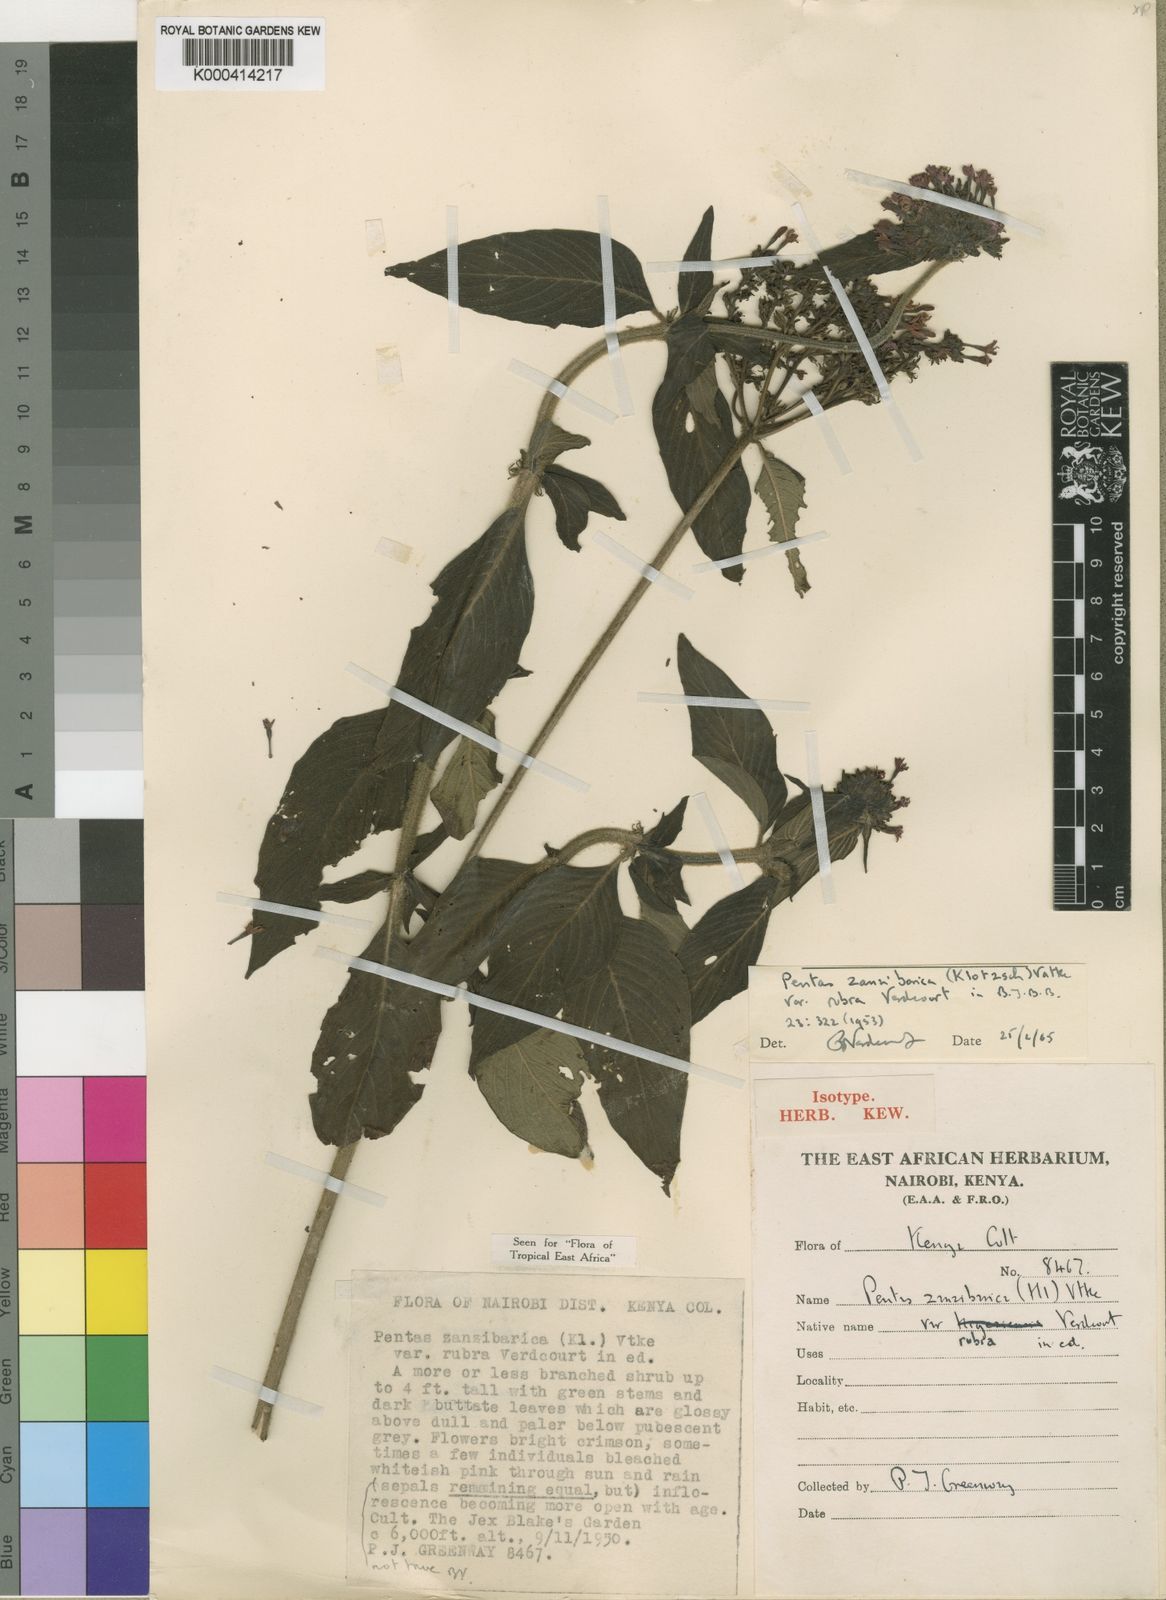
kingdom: Plantae
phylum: Tracheophyta
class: Magnoliopsida
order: Gentianales
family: Rubiaceae
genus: Pentas
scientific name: Pentas zanzibarica
